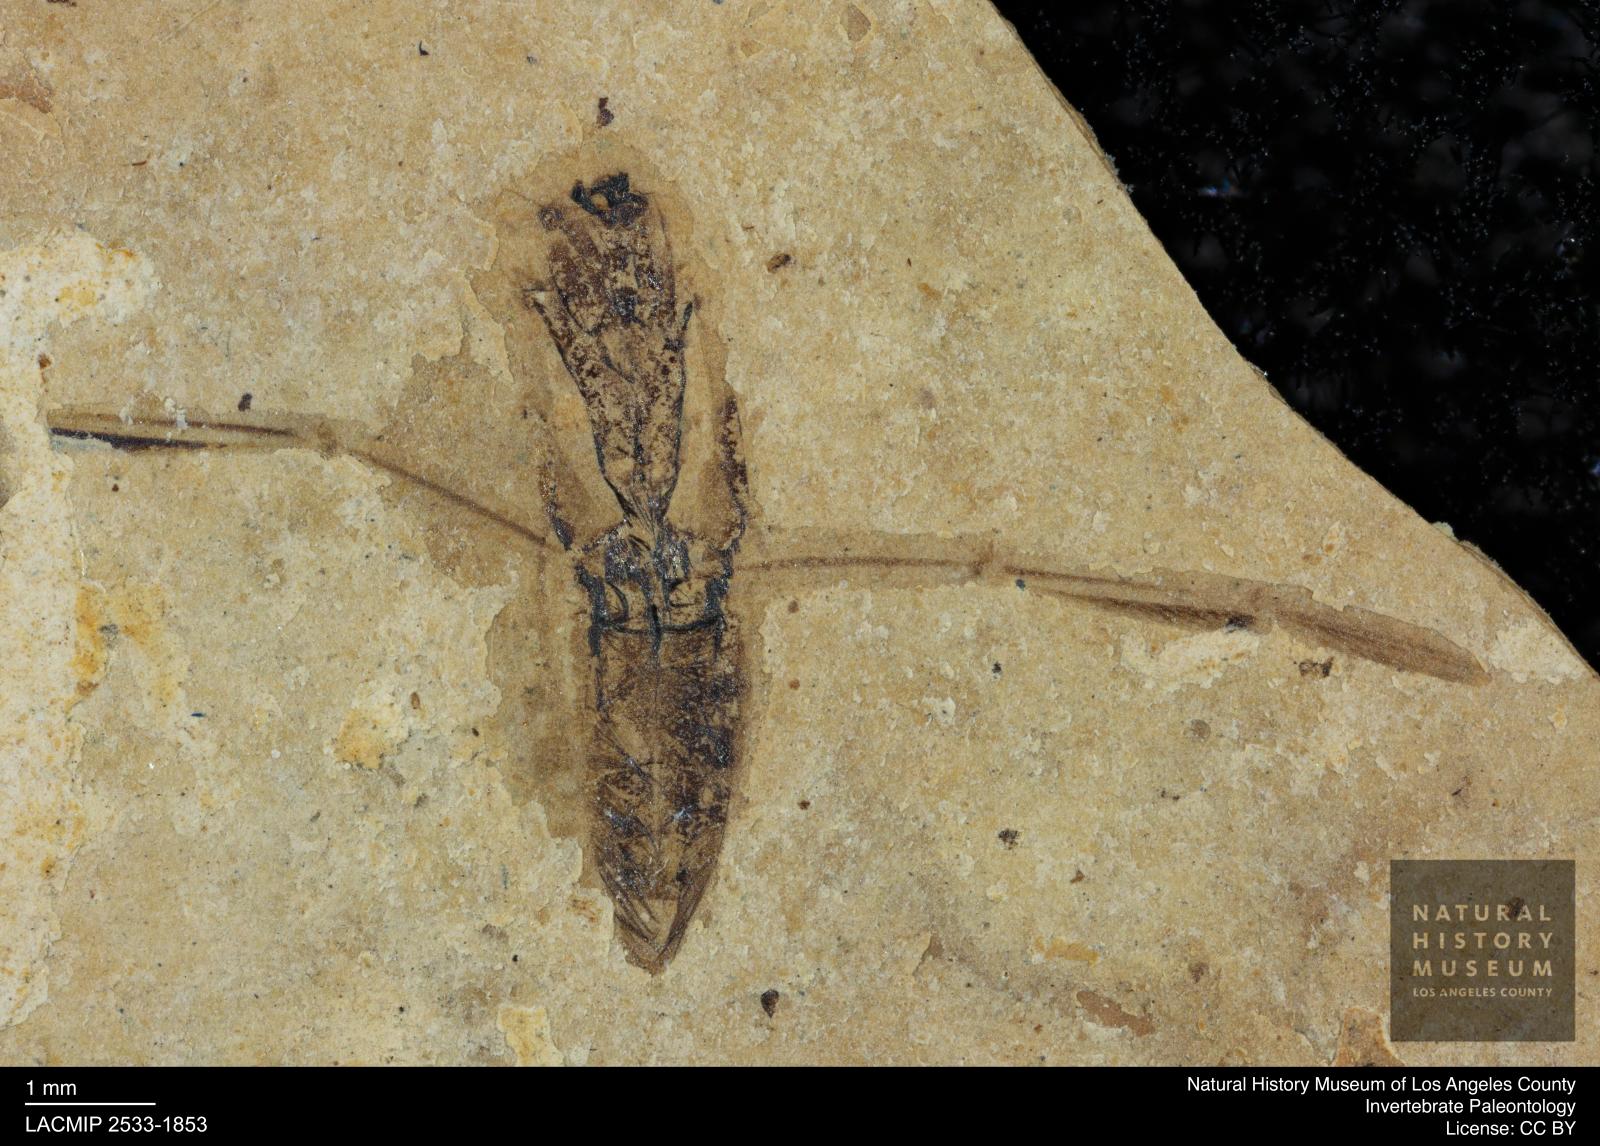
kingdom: Animalia
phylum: Arthropoda
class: Insecta
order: Hemiptera
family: Notonectidae
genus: Notonecta
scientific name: Notonecta
